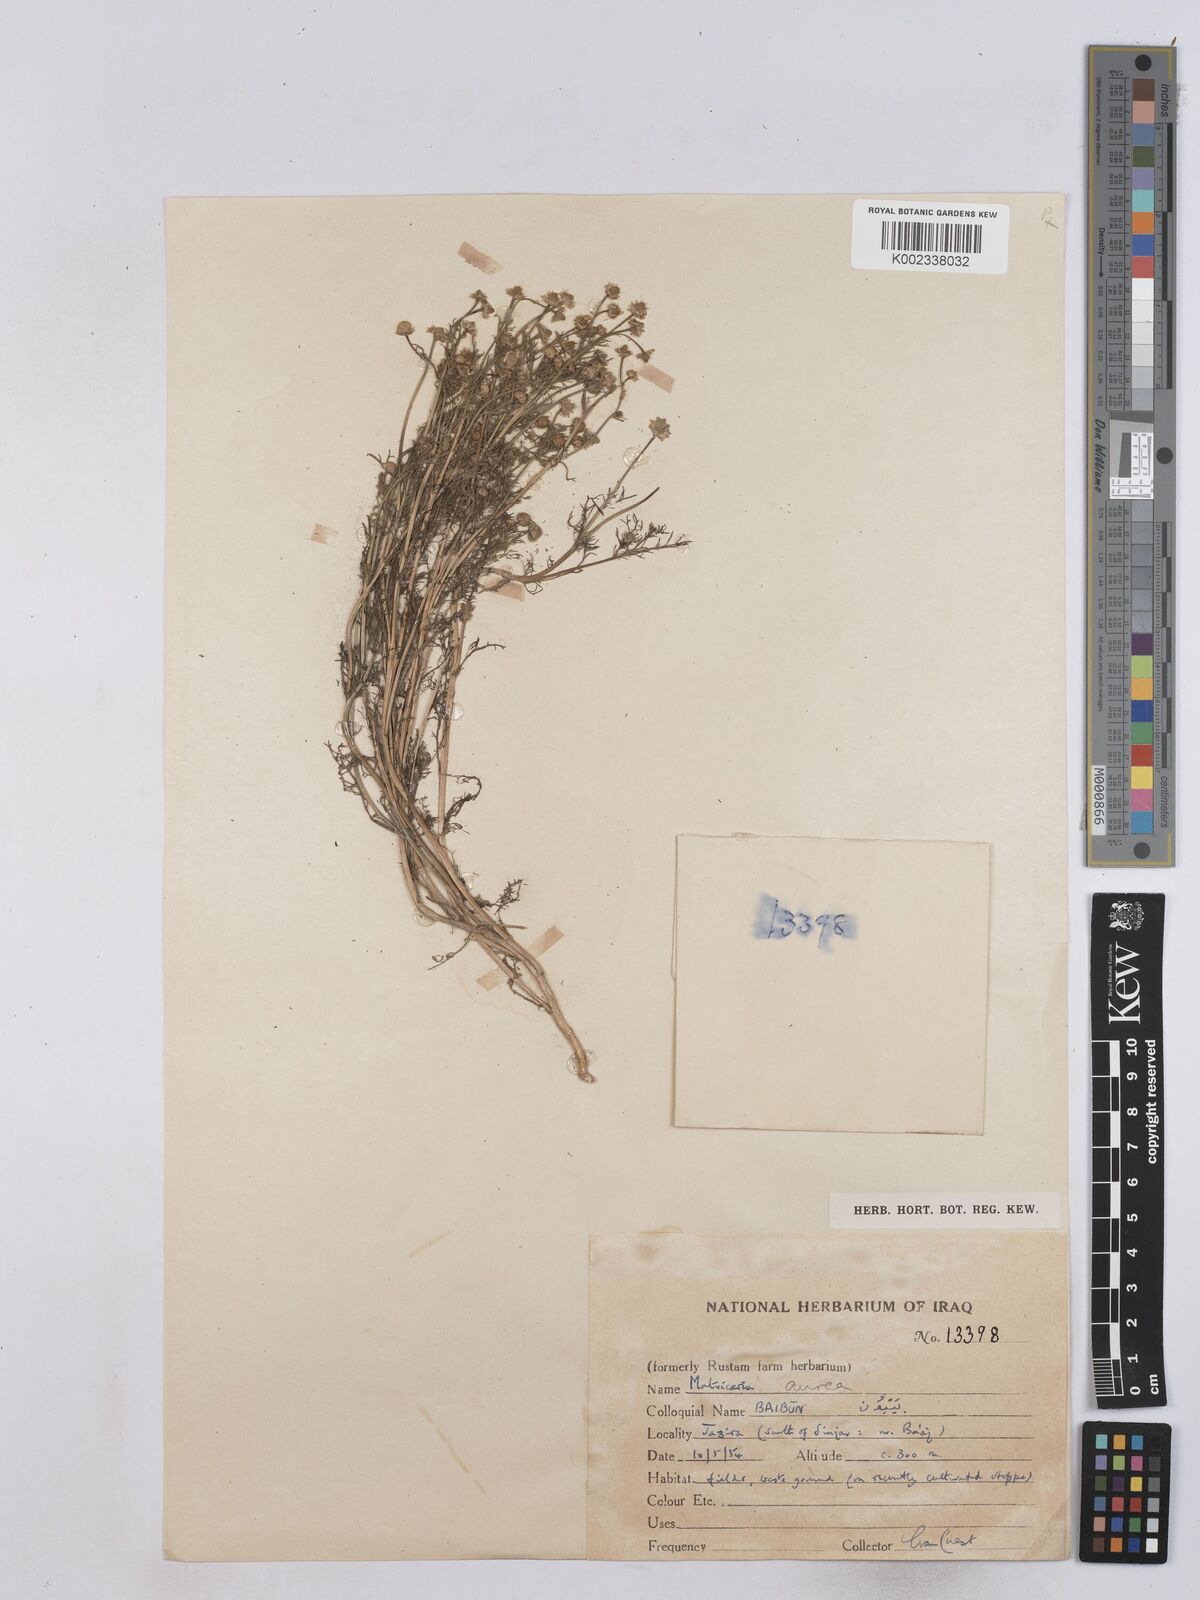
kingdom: Plantae
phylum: Tracheophyta
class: Magnoliopsida
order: Asterales
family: Asteraceae
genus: Matricaria
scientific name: Matricaria aurea
